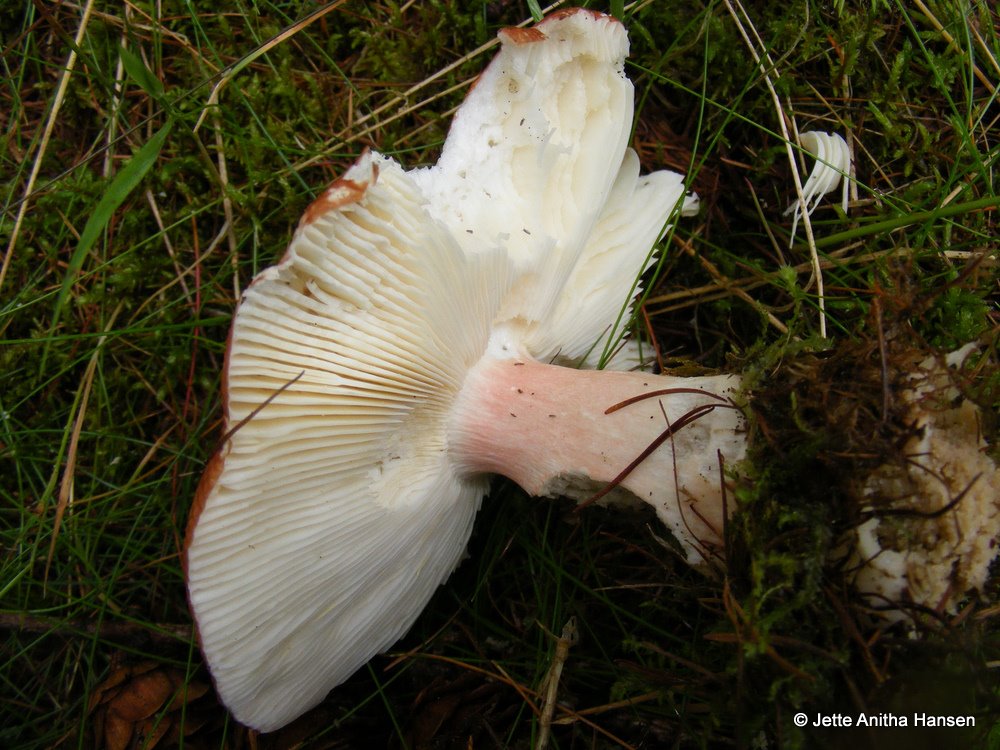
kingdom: Fungi
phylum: Basidiomycota
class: Agaricomycetes
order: Russulales
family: Russulaceae
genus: Russula
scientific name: Russula paludosa
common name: prægtig skørhat
